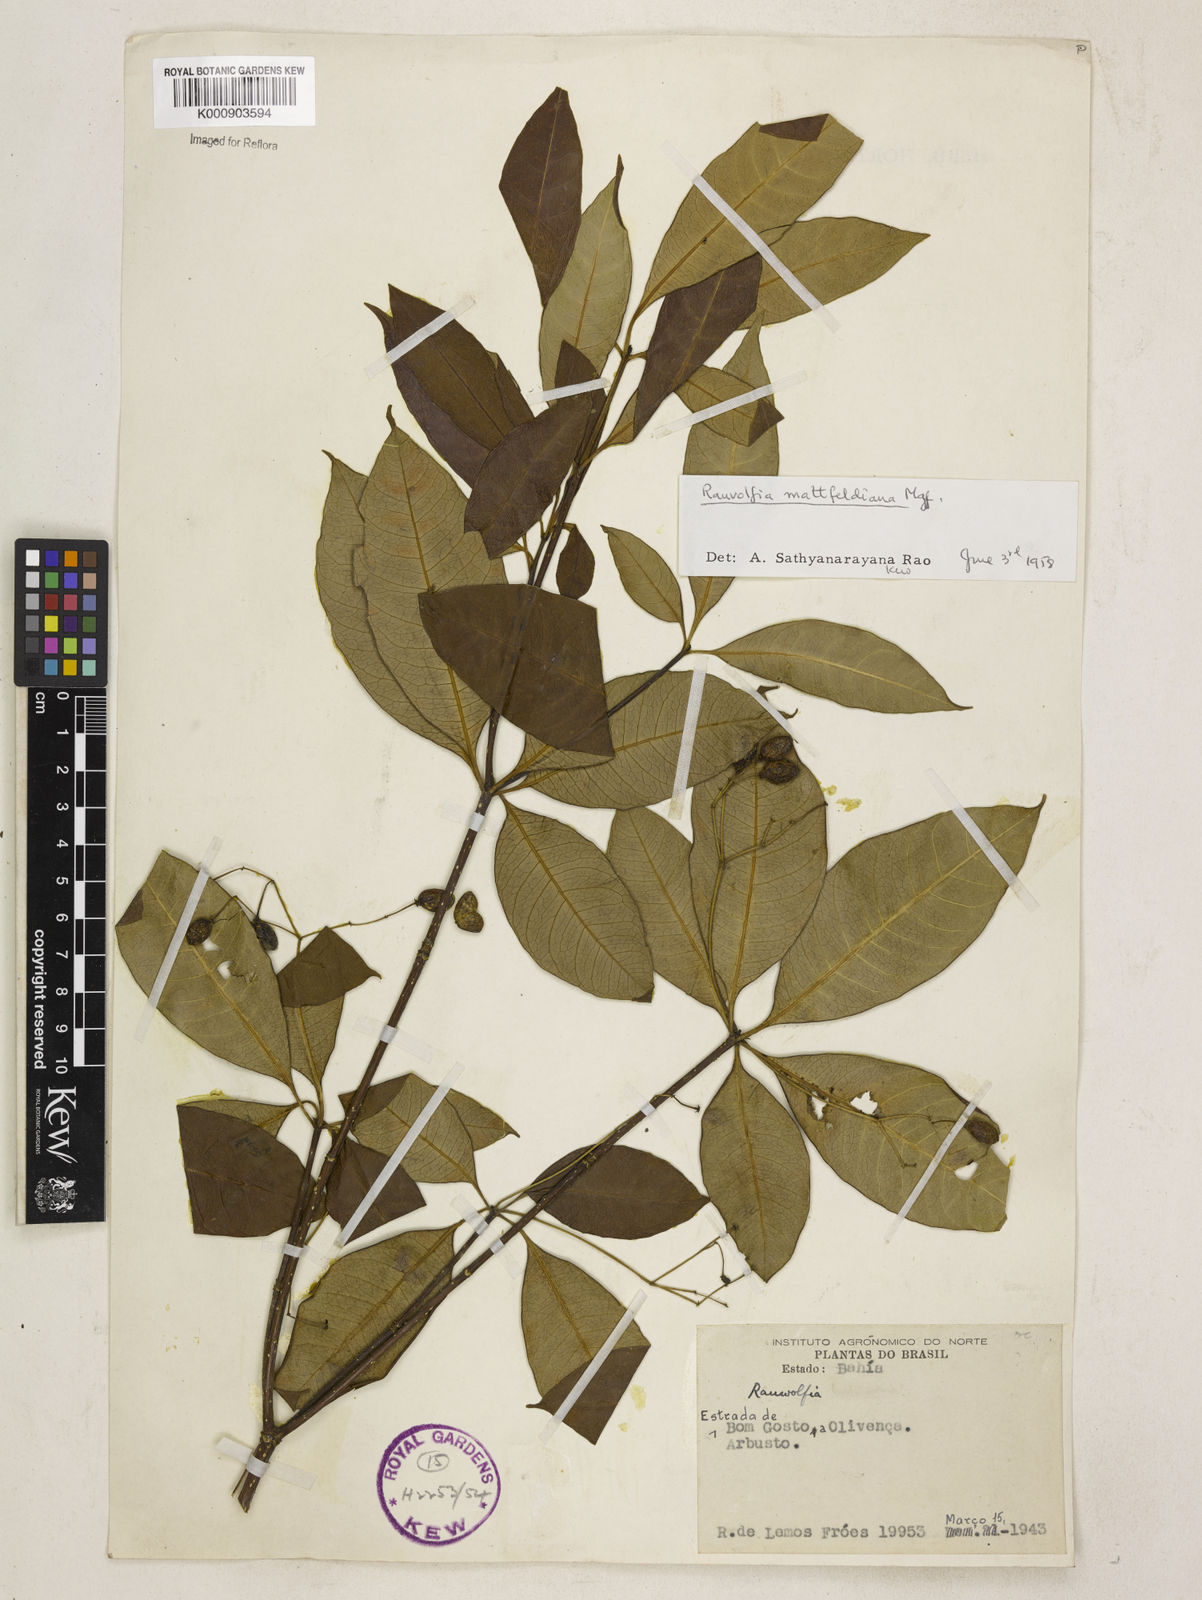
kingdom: Plantae
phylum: Tracheophyta
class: Magnoliopsida
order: Gentianales
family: Apocynaceae
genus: Rauvolfia
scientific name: Rauvolfia mattfeldiana
